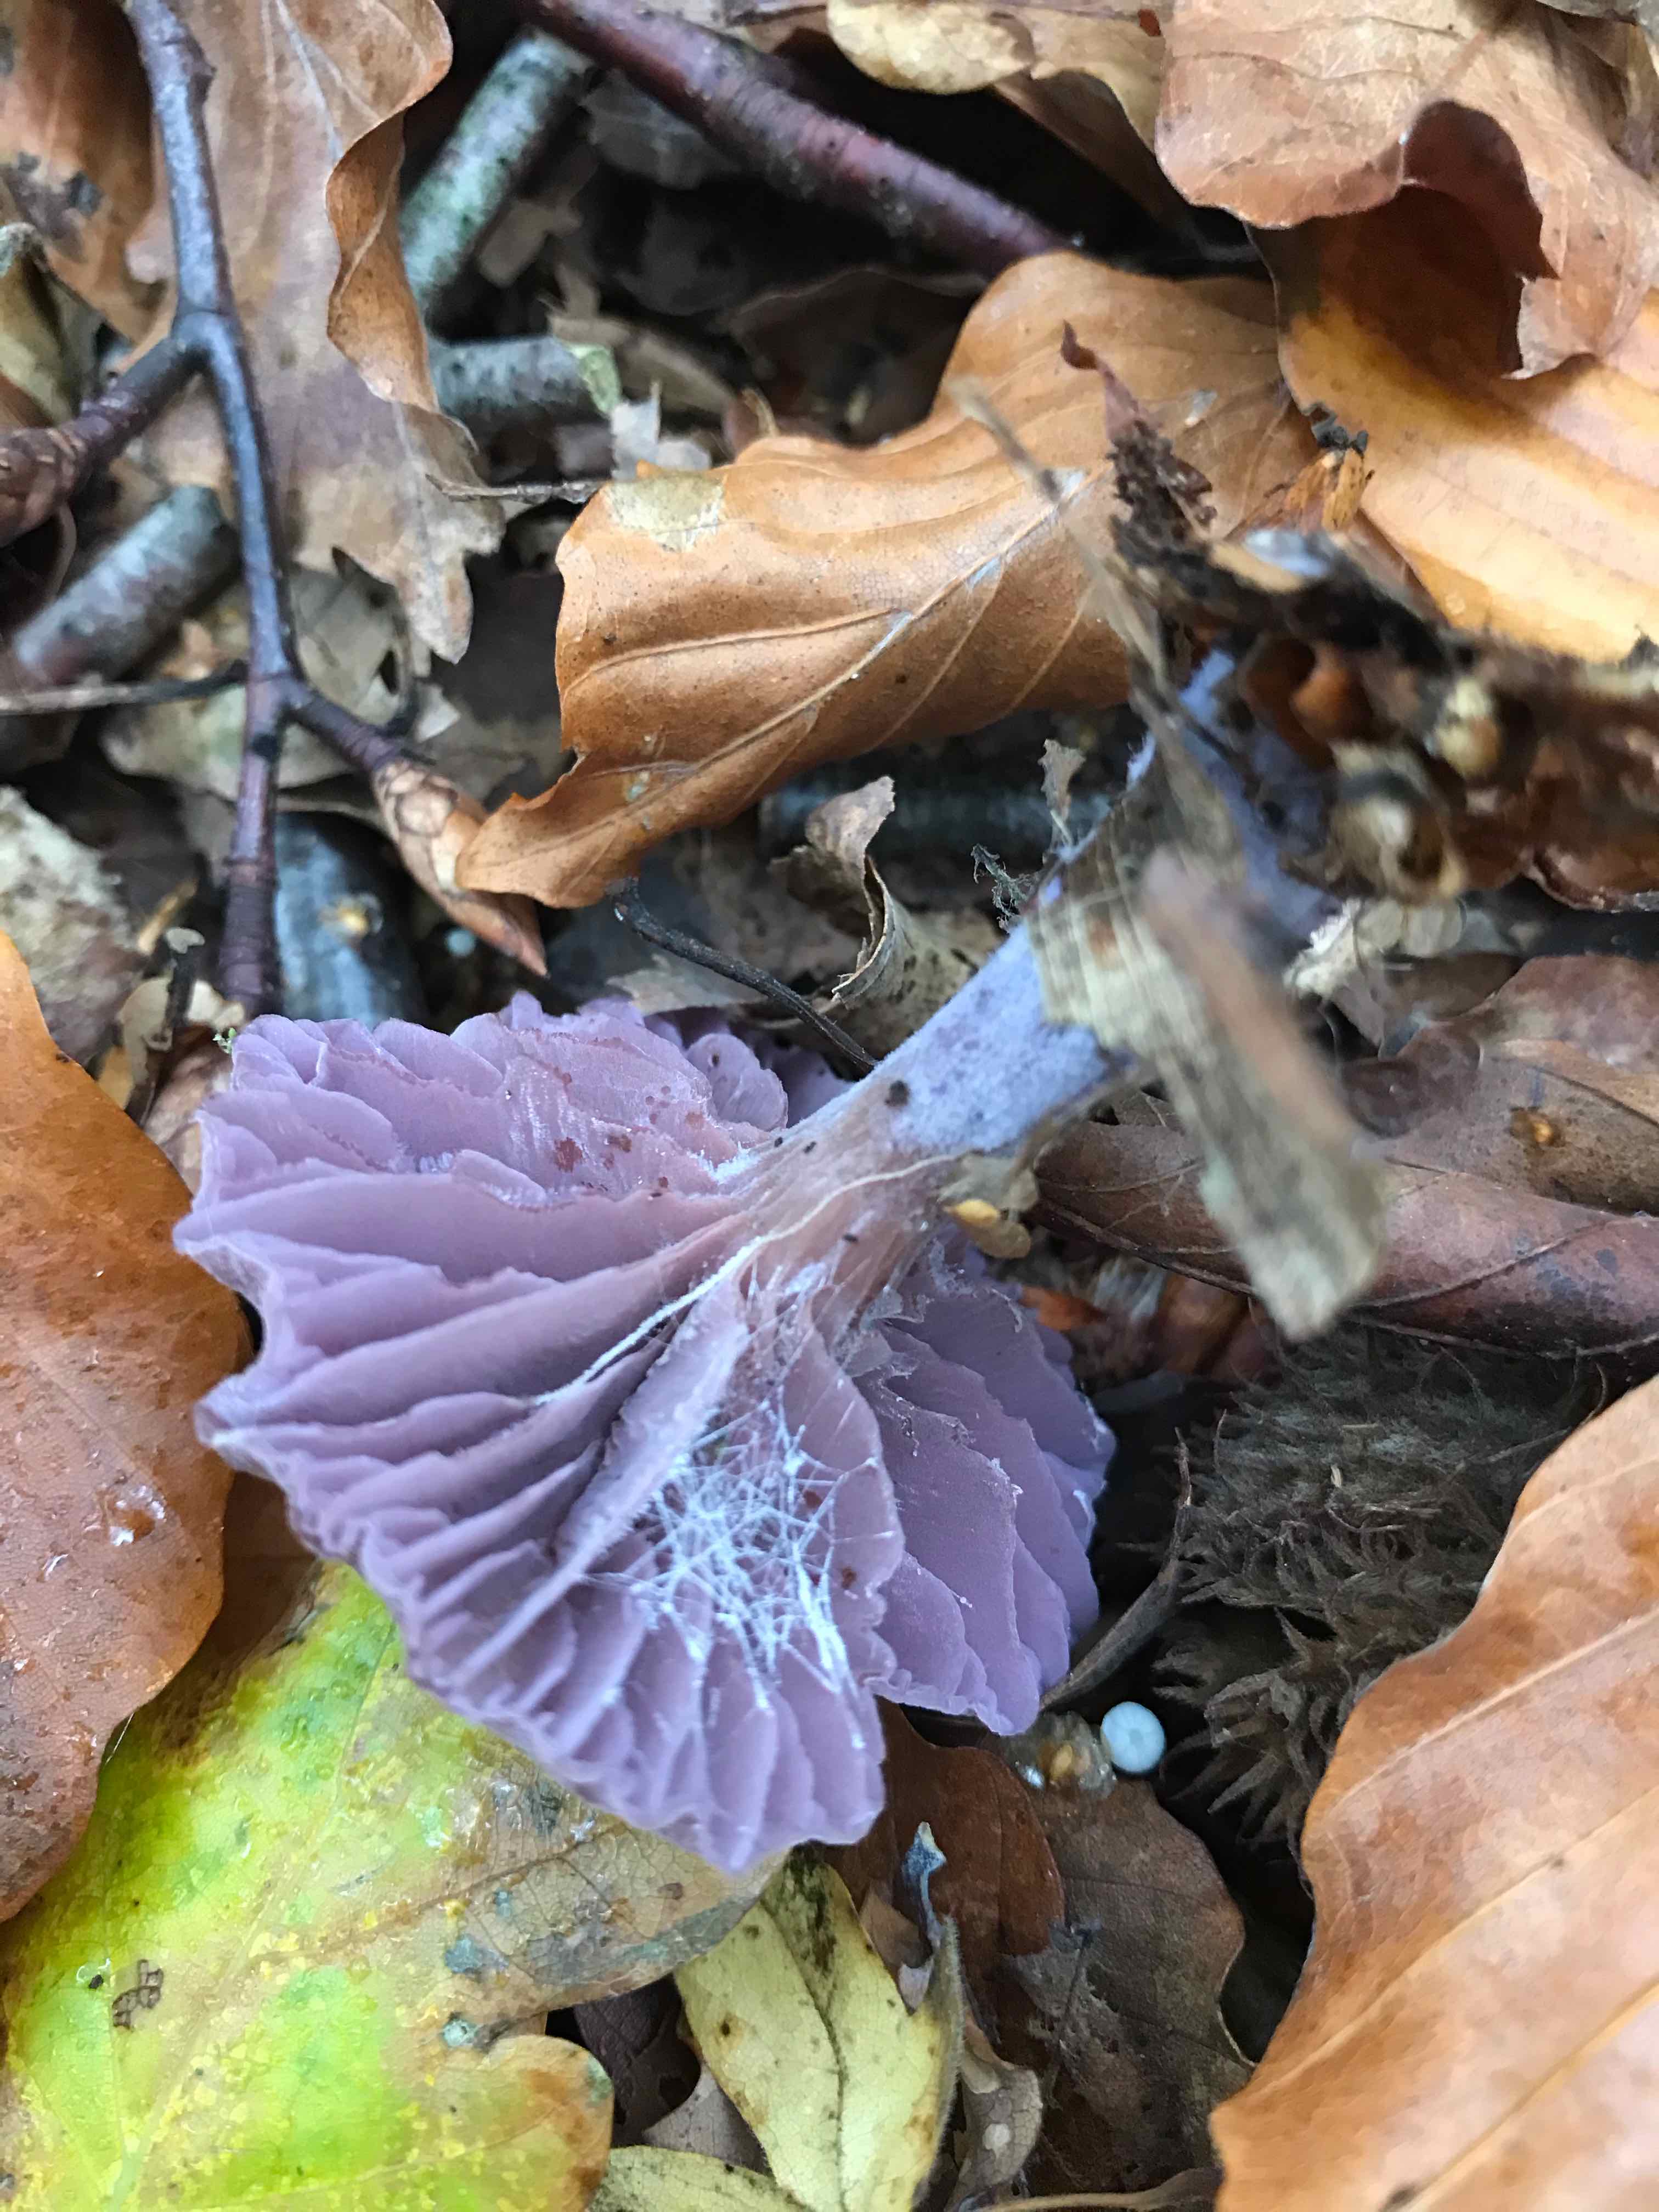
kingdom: Fungi
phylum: Basidiomycota
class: Agaricomycetes
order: Agaricales
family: Hydnangiaceae
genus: Laccaria
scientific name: Laccaria amethystina
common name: violet ametysthat
